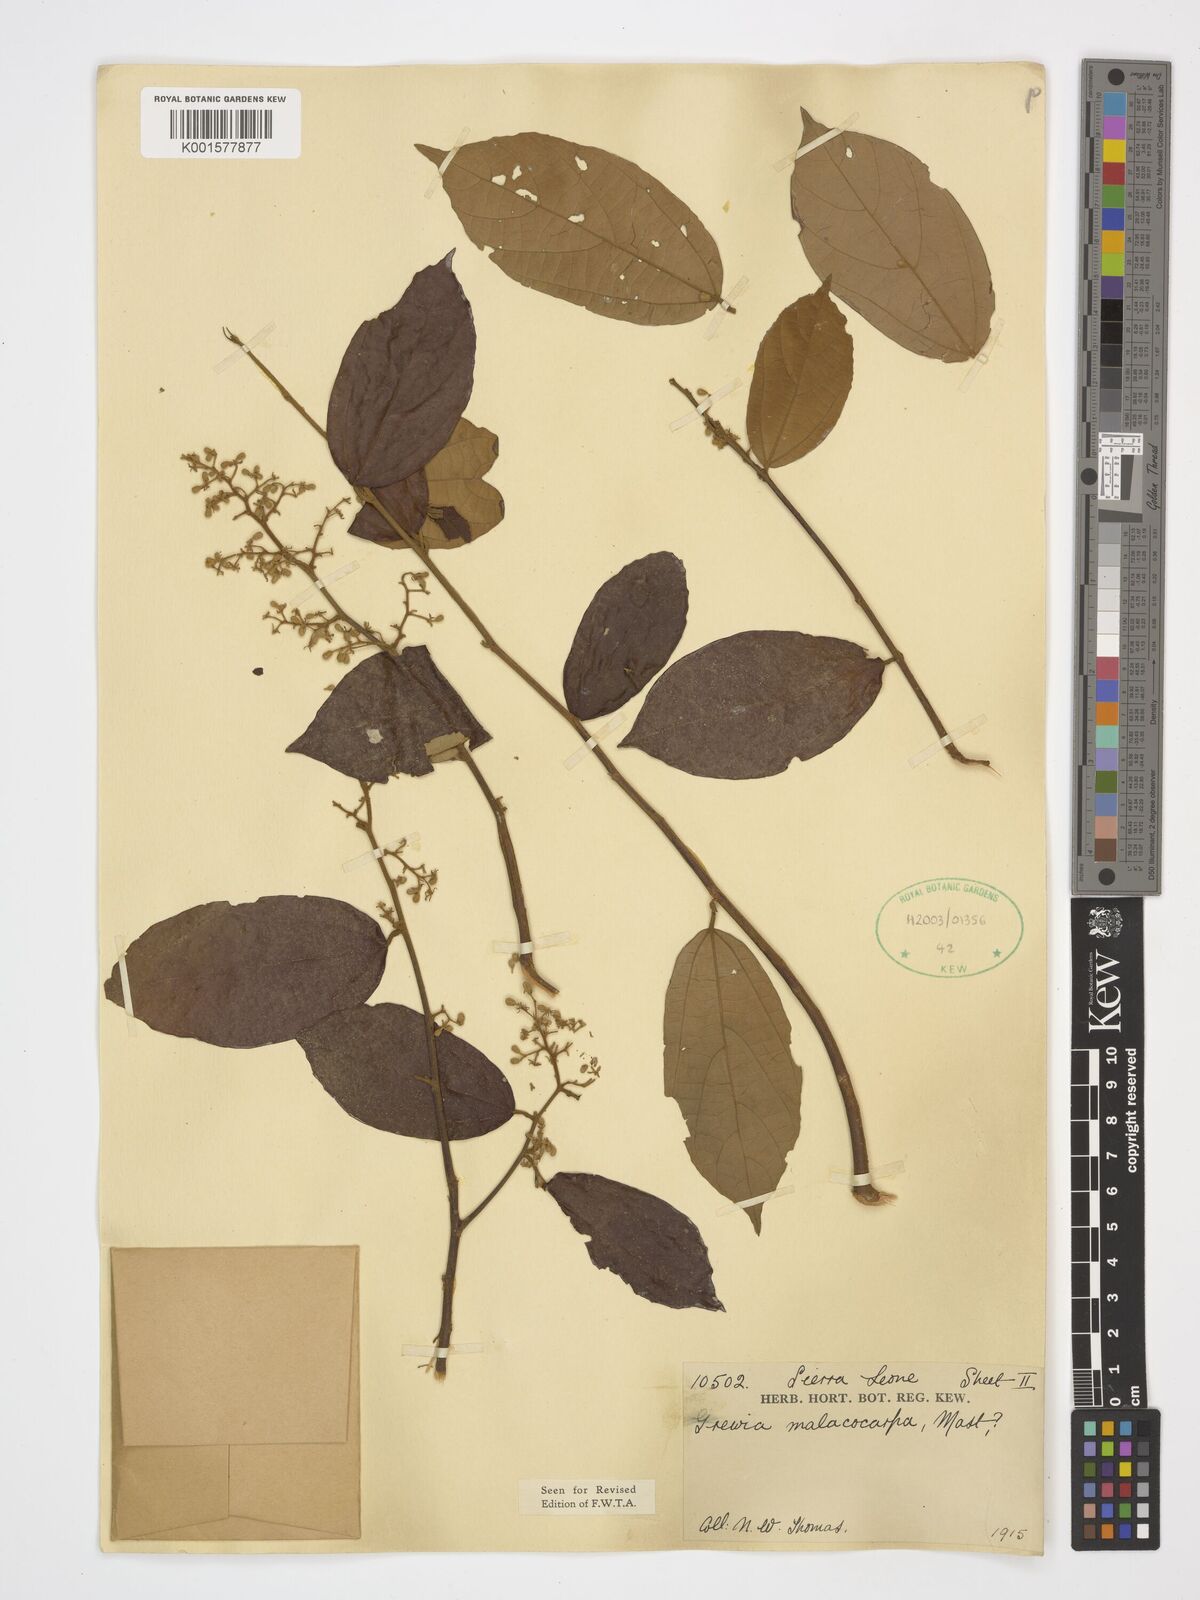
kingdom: Plantae
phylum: Tracheophyta
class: Magnoliopsida
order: Malvales
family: Malvaceae
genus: Microcos
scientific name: Microcos malacocarpa
